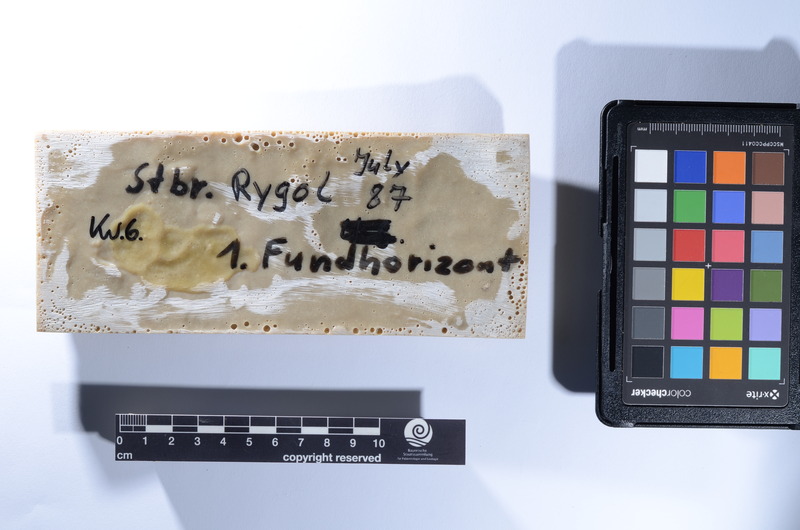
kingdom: Animalia
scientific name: Animalia
